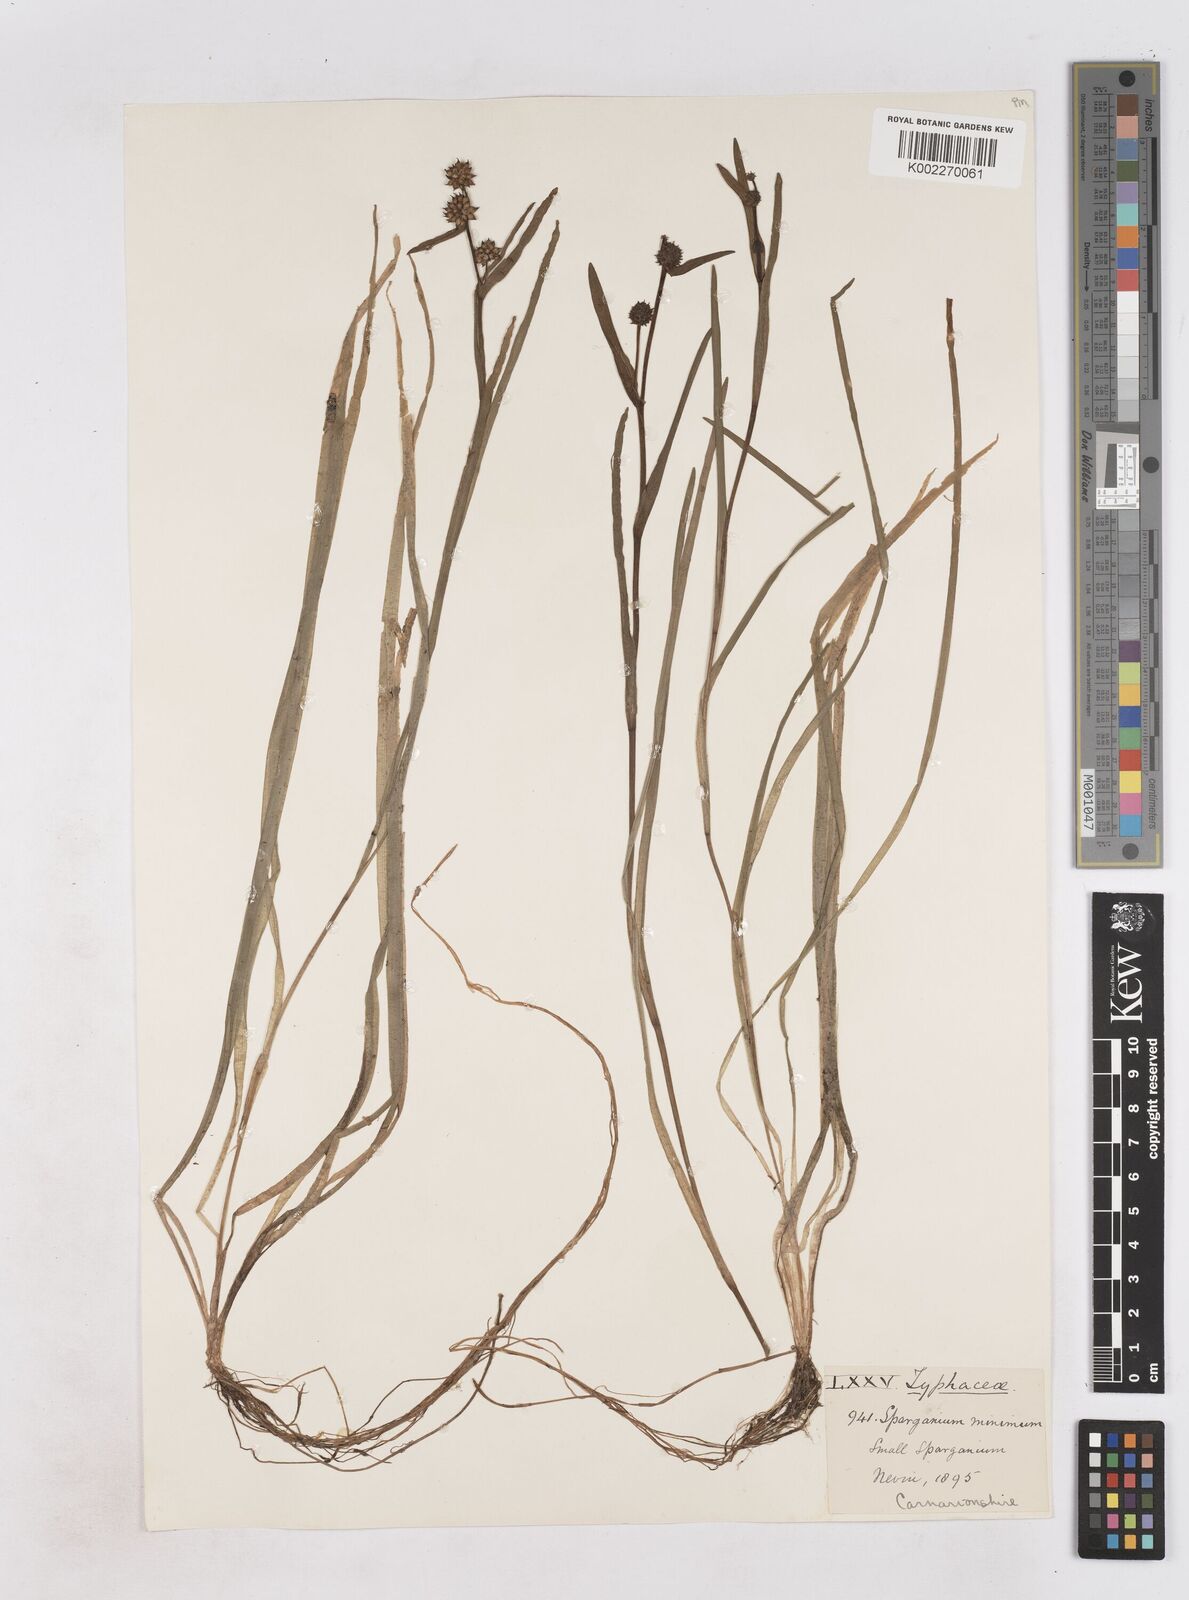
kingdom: Plantae
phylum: Tracheophyta
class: Liliopsida
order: Poales
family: Typhaceae
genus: Sparganium
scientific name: Sparganium natans
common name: Least bur-reed
